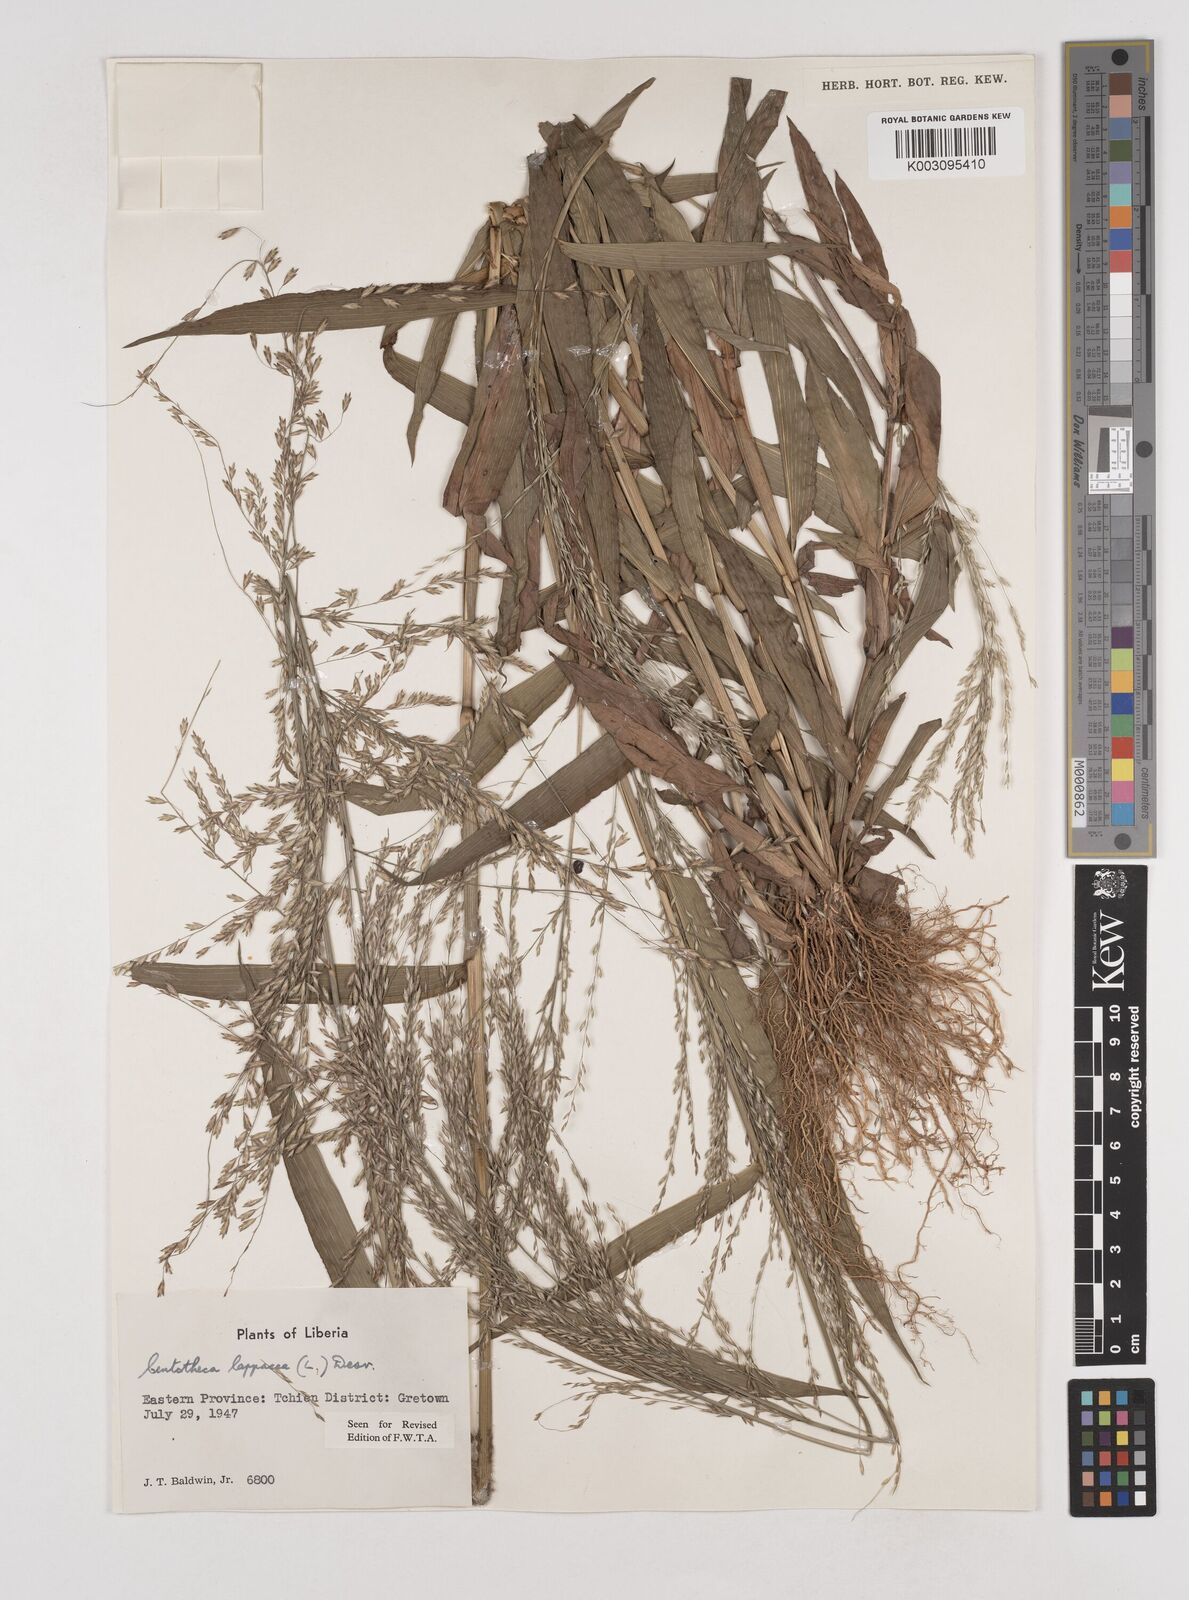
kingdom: Plantae
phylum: Tracheophyta
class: Liliopsida
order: Poales
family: Poaceae
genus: Centotheca
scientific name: Centotheca lappacea
